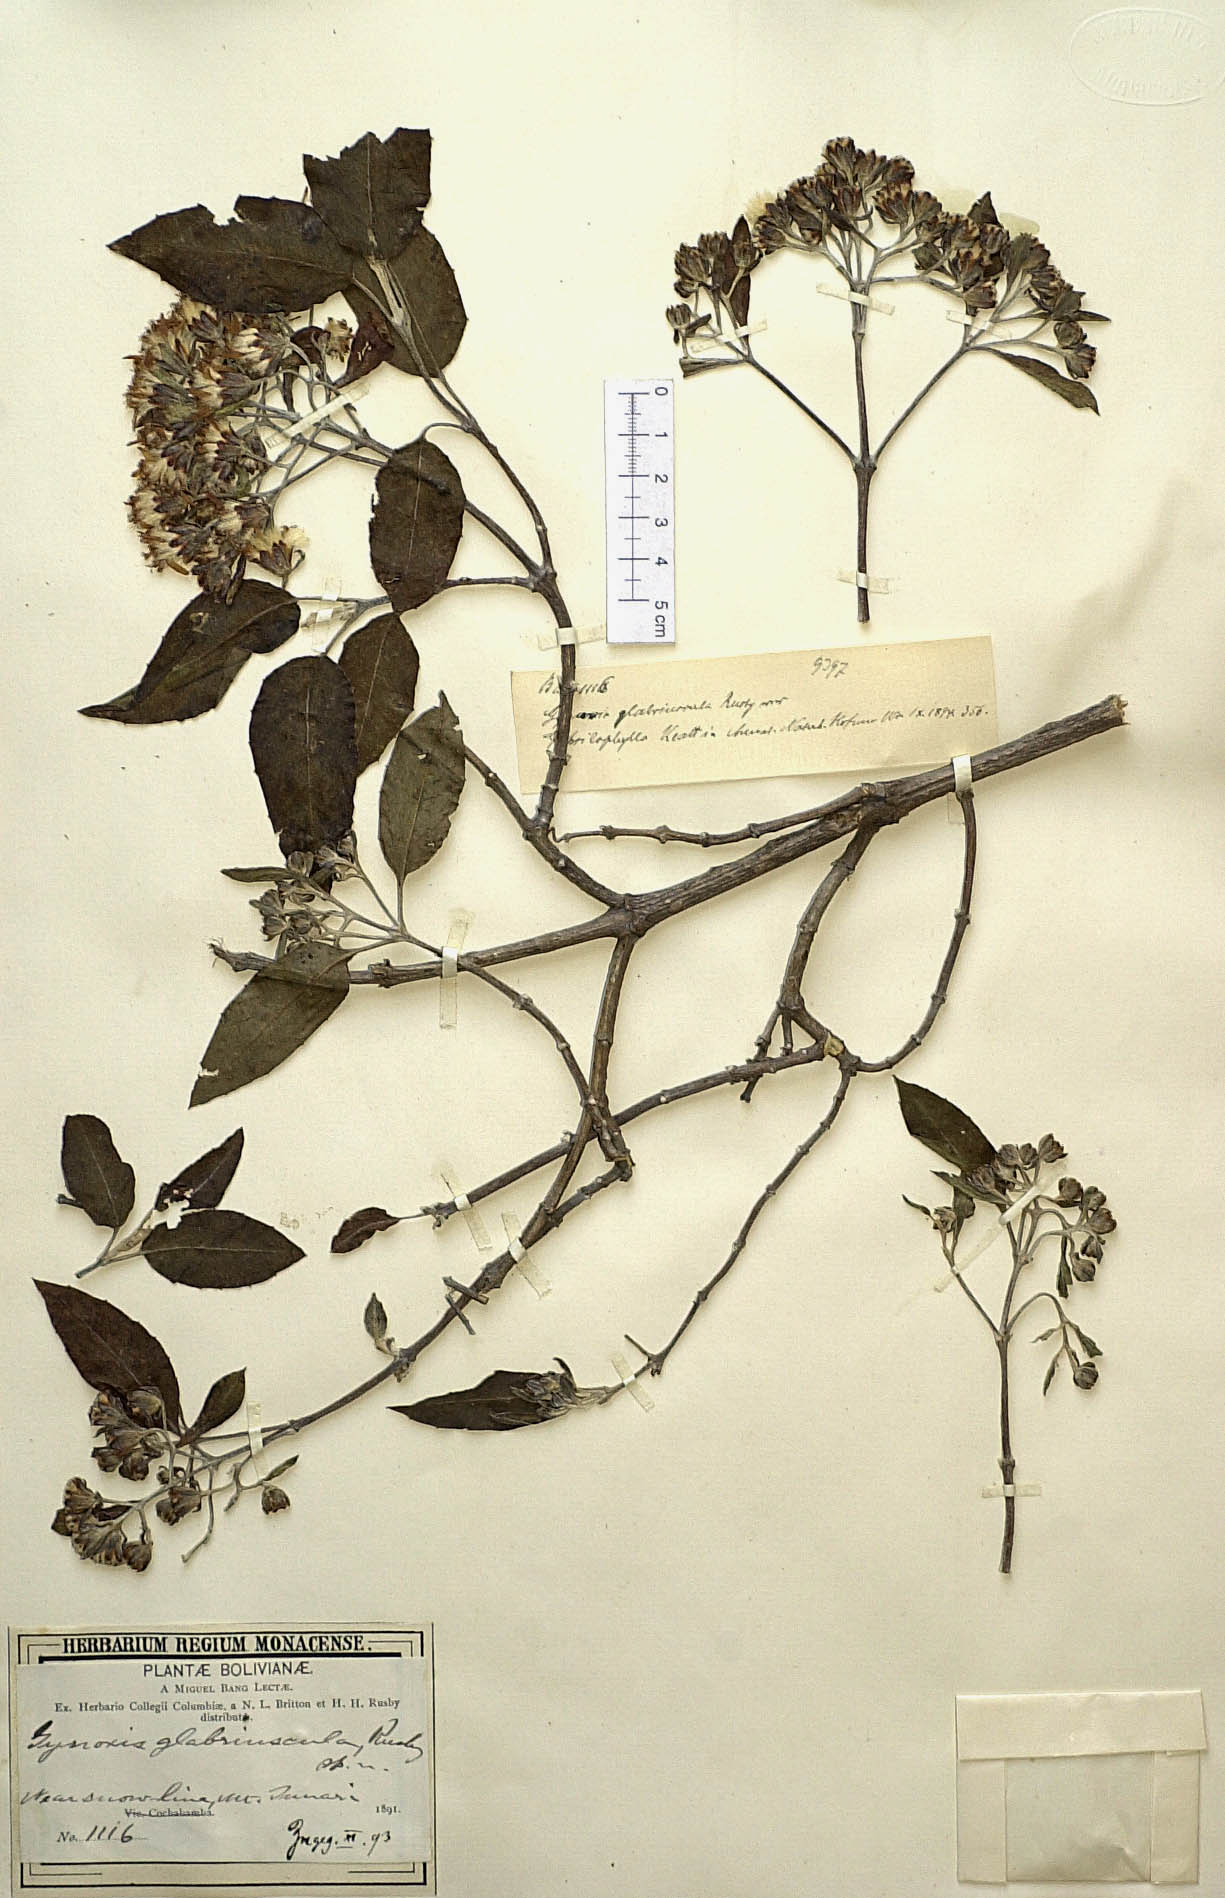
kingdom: Plantae
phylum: Tracheophyta
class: Magnoliopsida
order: Asterales
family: Asteraceae
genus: Gynoxys
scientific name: Gynoxys psilophylla
